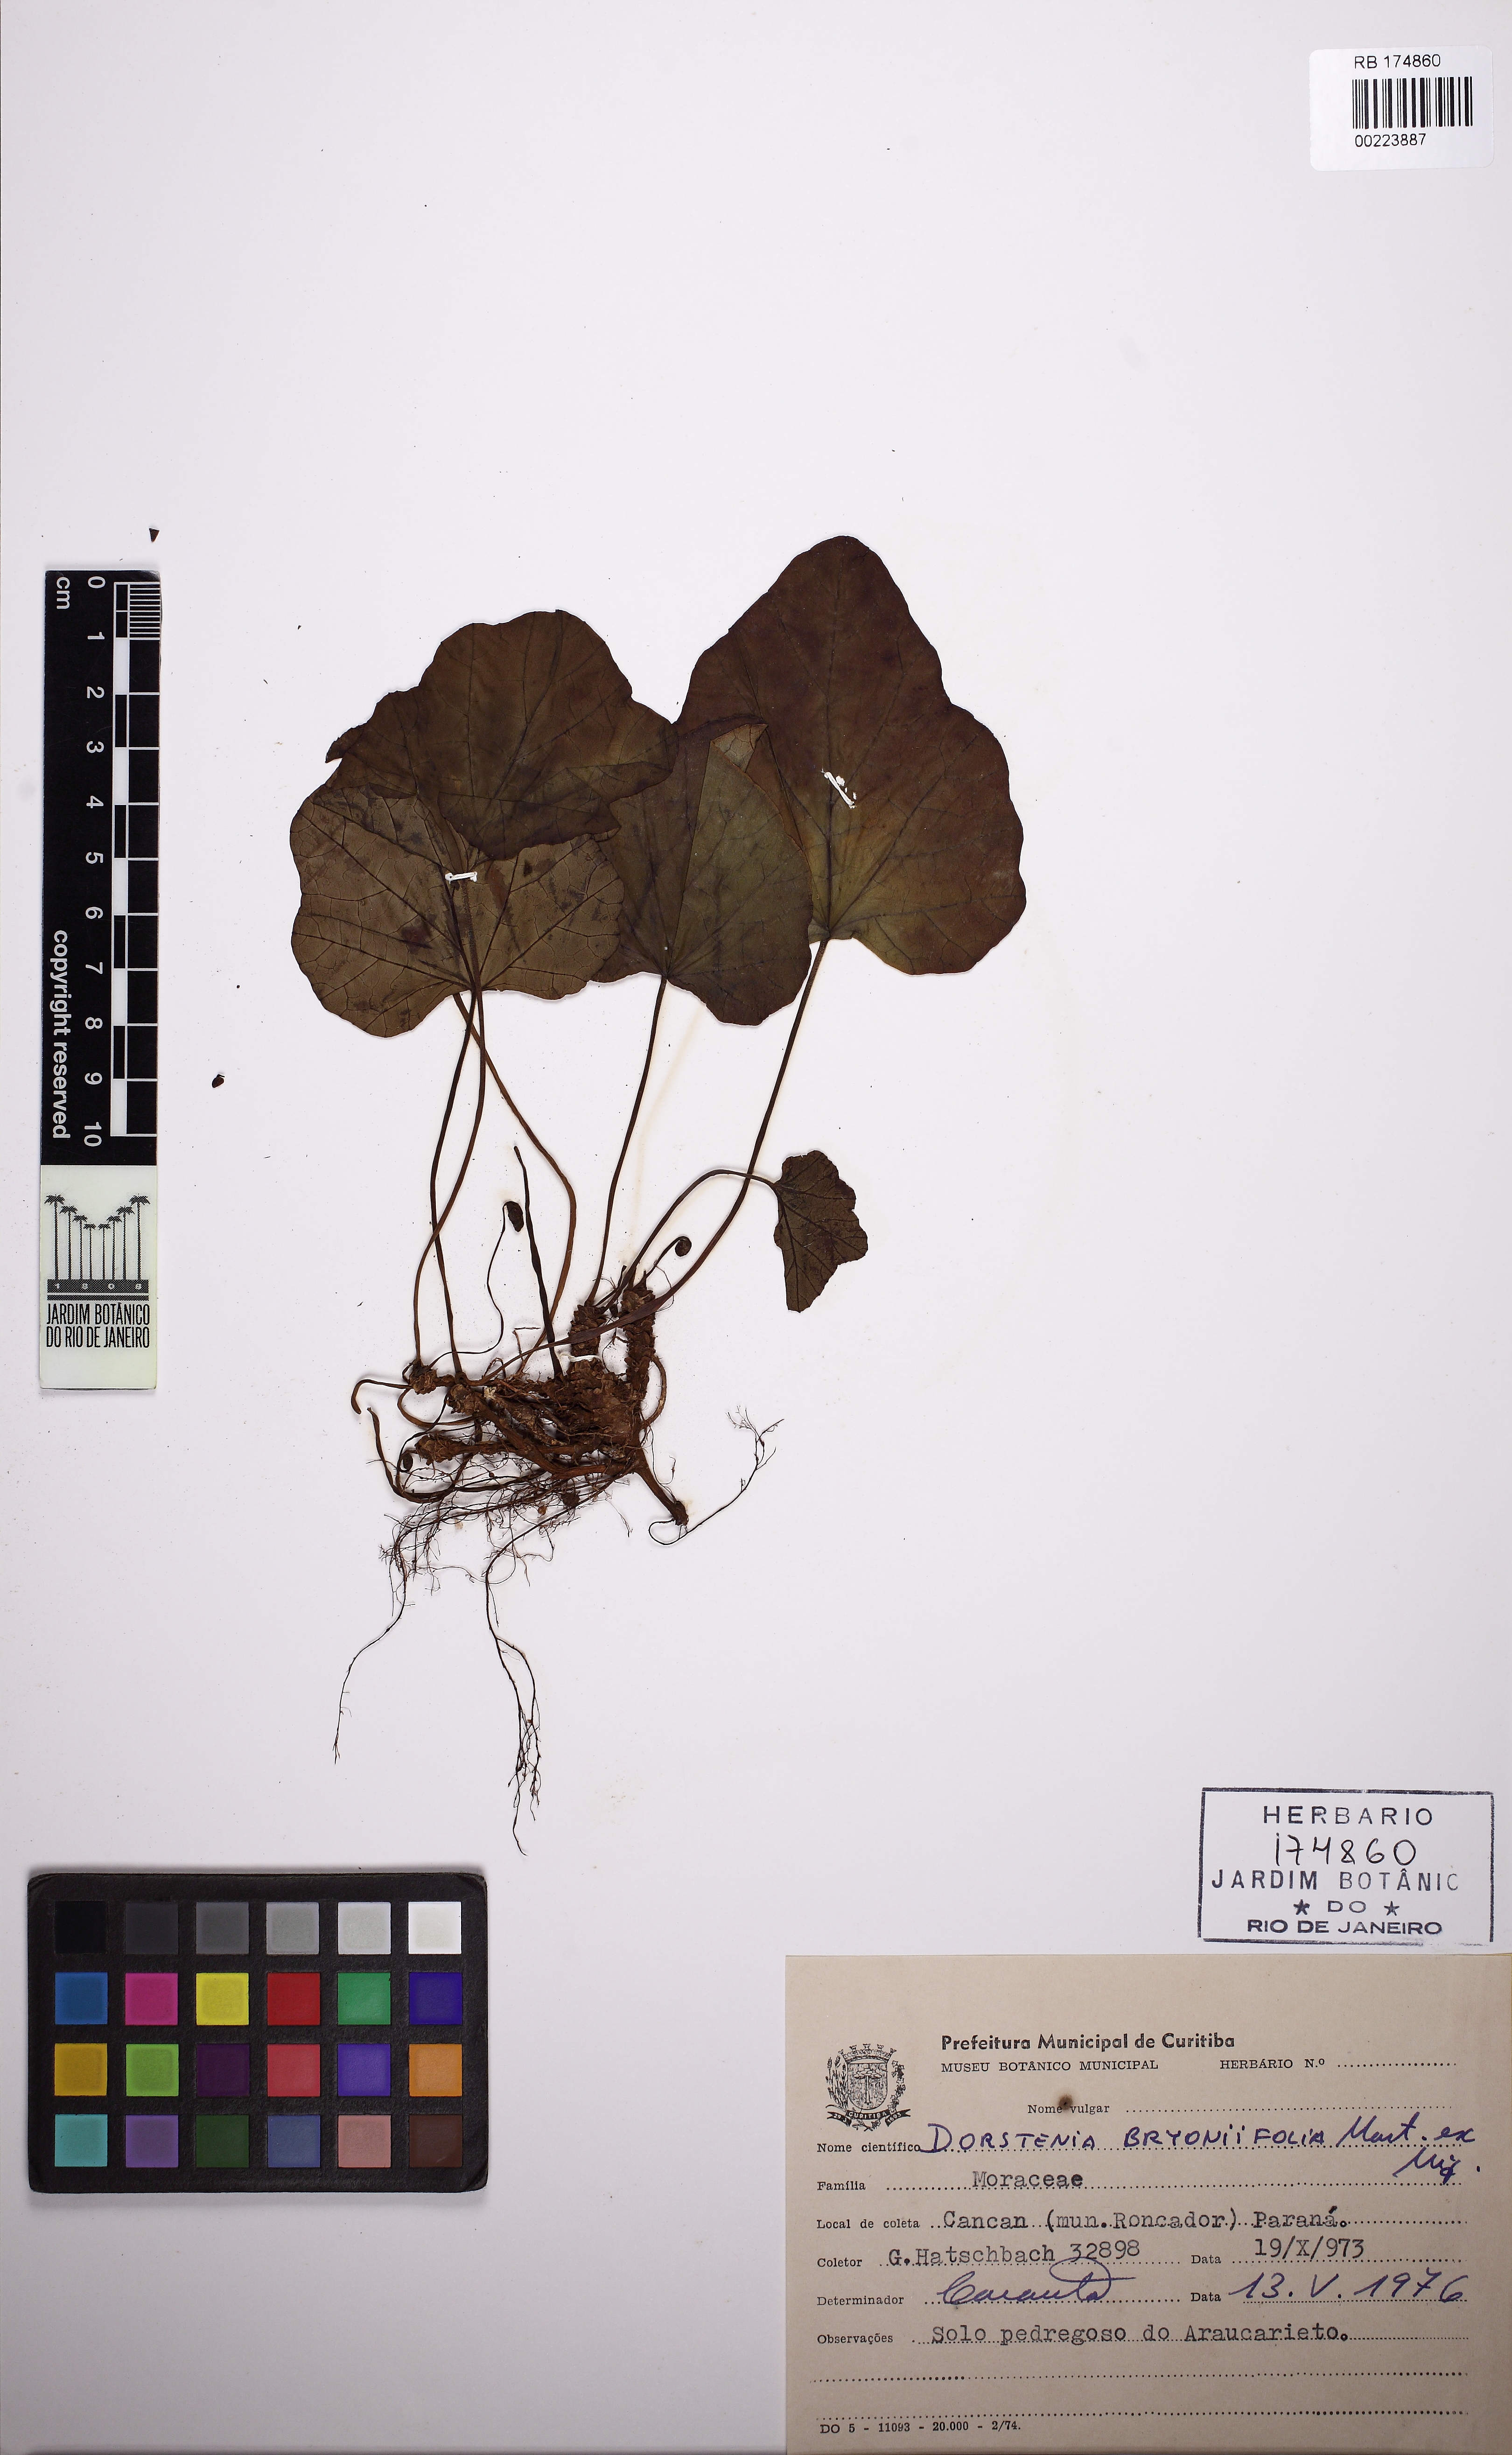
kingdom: Plantae
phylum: Tracheophyta
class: Magnoliopsida
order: Rosales
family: Moraceae
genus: Dorstenia
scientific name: Dorstenia cayapia
